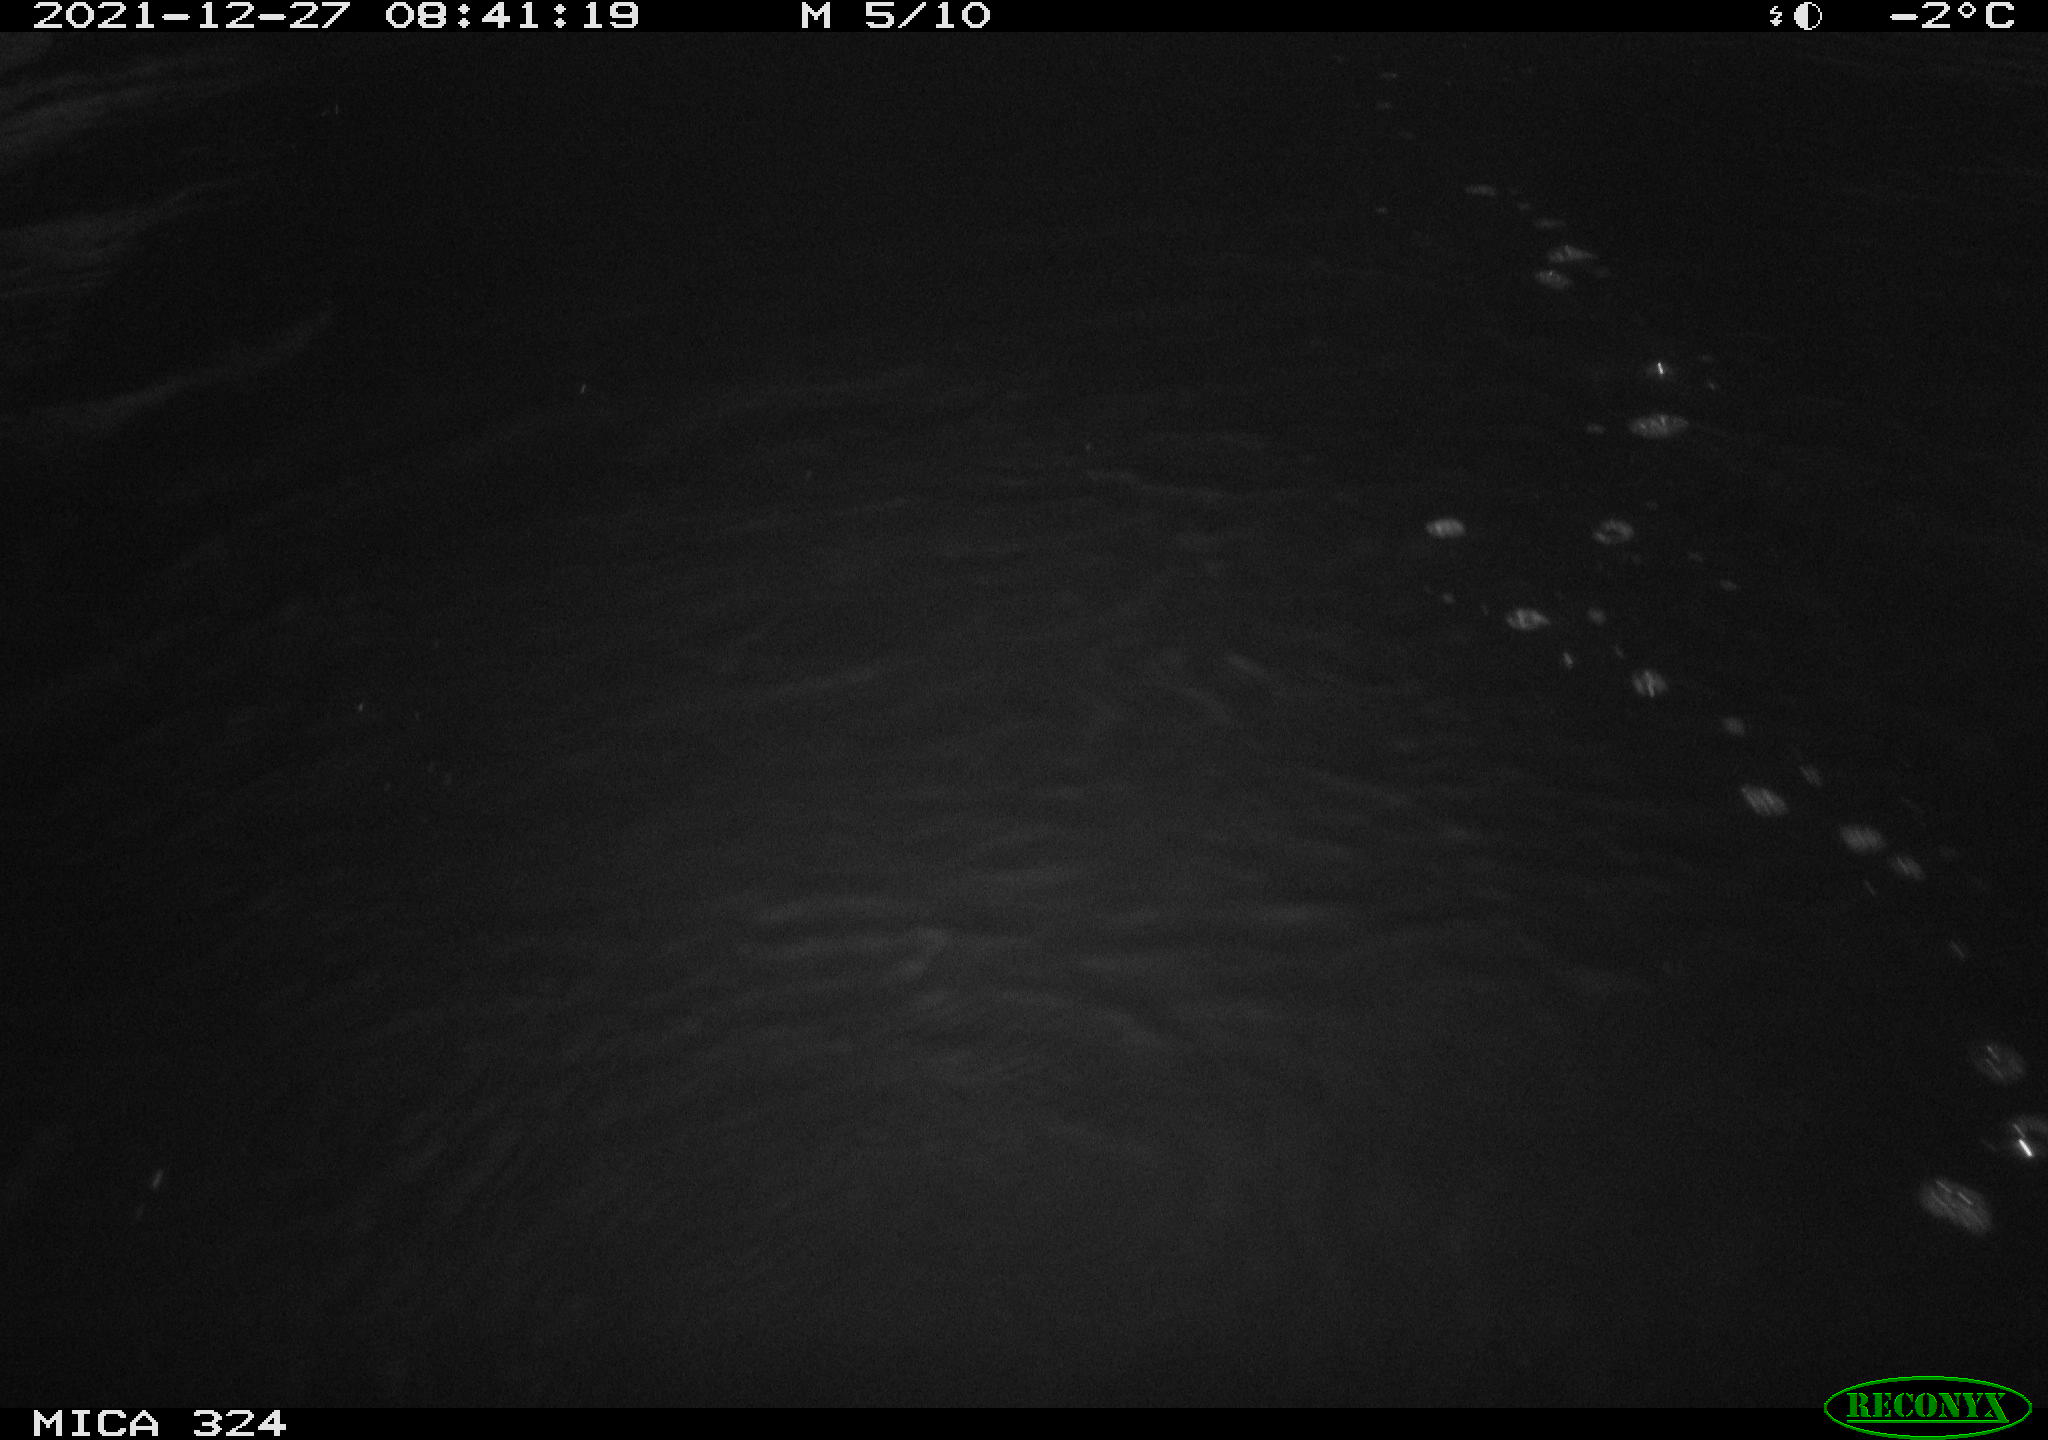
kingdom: Animalia
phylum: Chordata
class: Aves
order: Anseriformes
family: Anatidae
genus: Anas
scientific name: Anas
